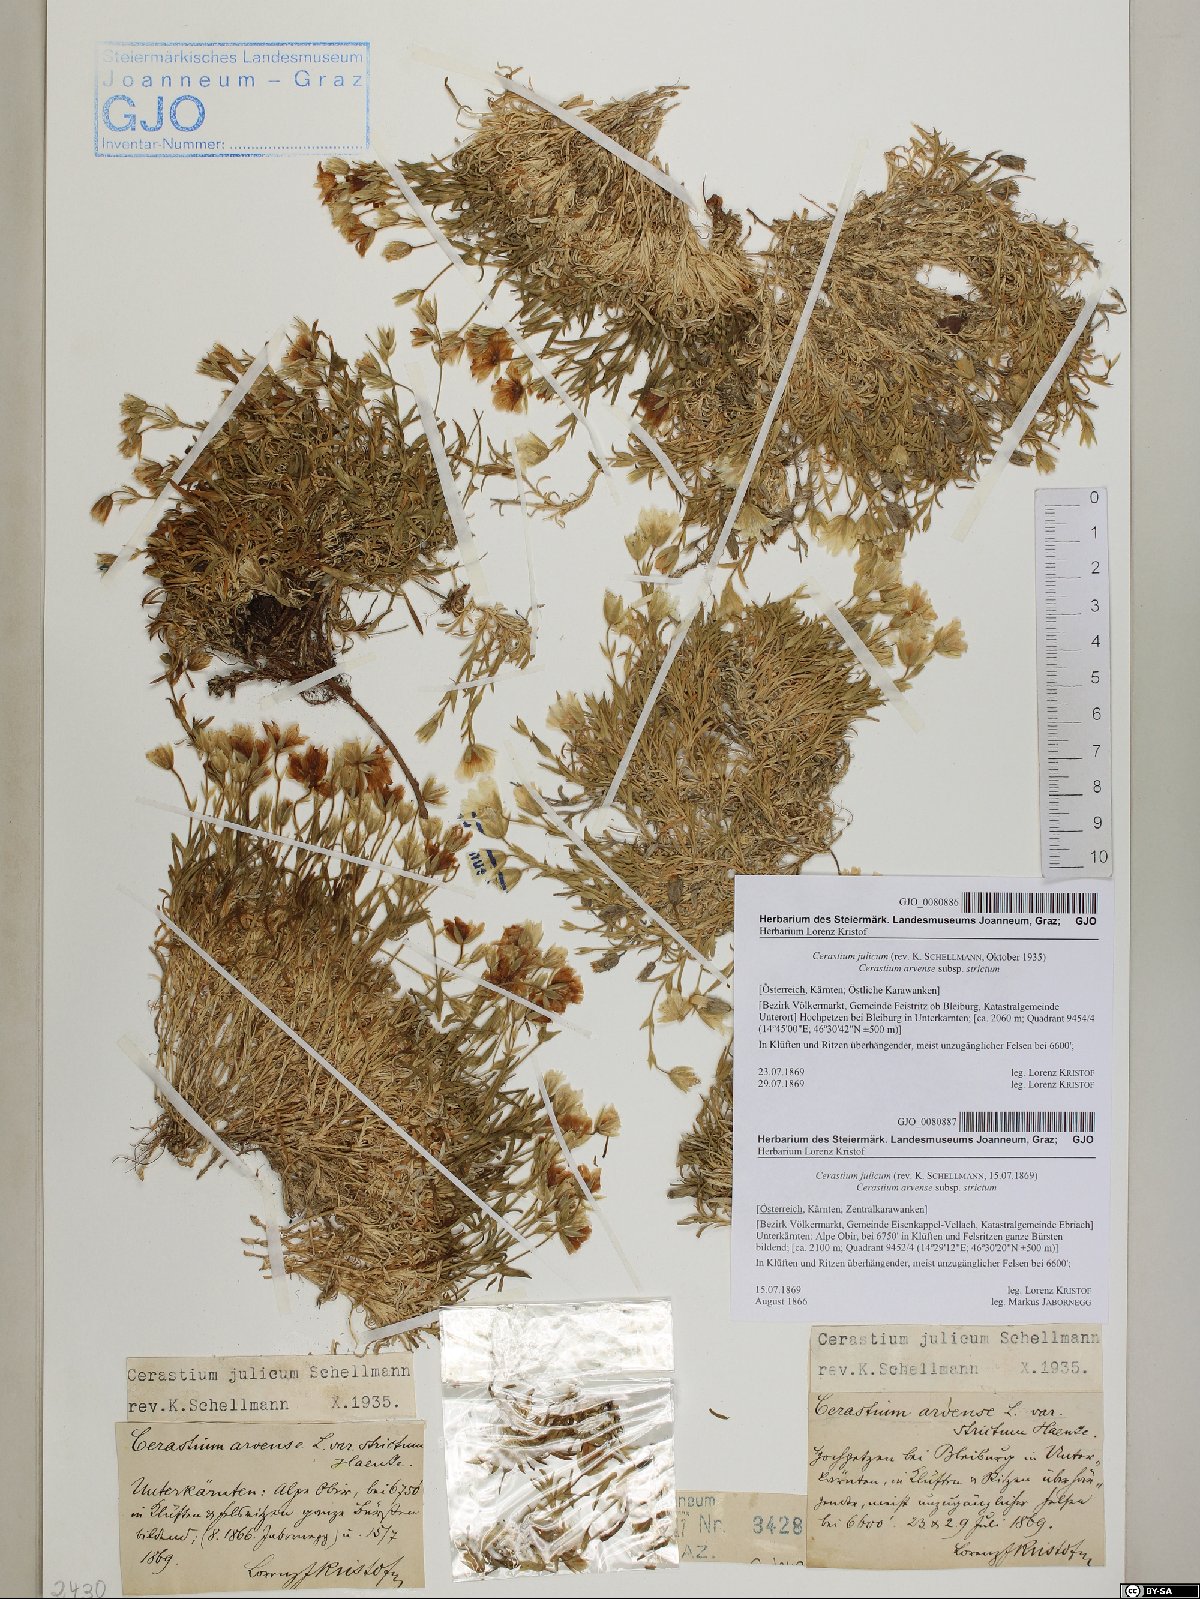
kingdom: Plantae
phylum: Tracheophyta
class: Magnoliopsida
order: Caryophyllales
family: Caryophyllaceae
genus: Cerastium
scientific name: Cerastium julicum
